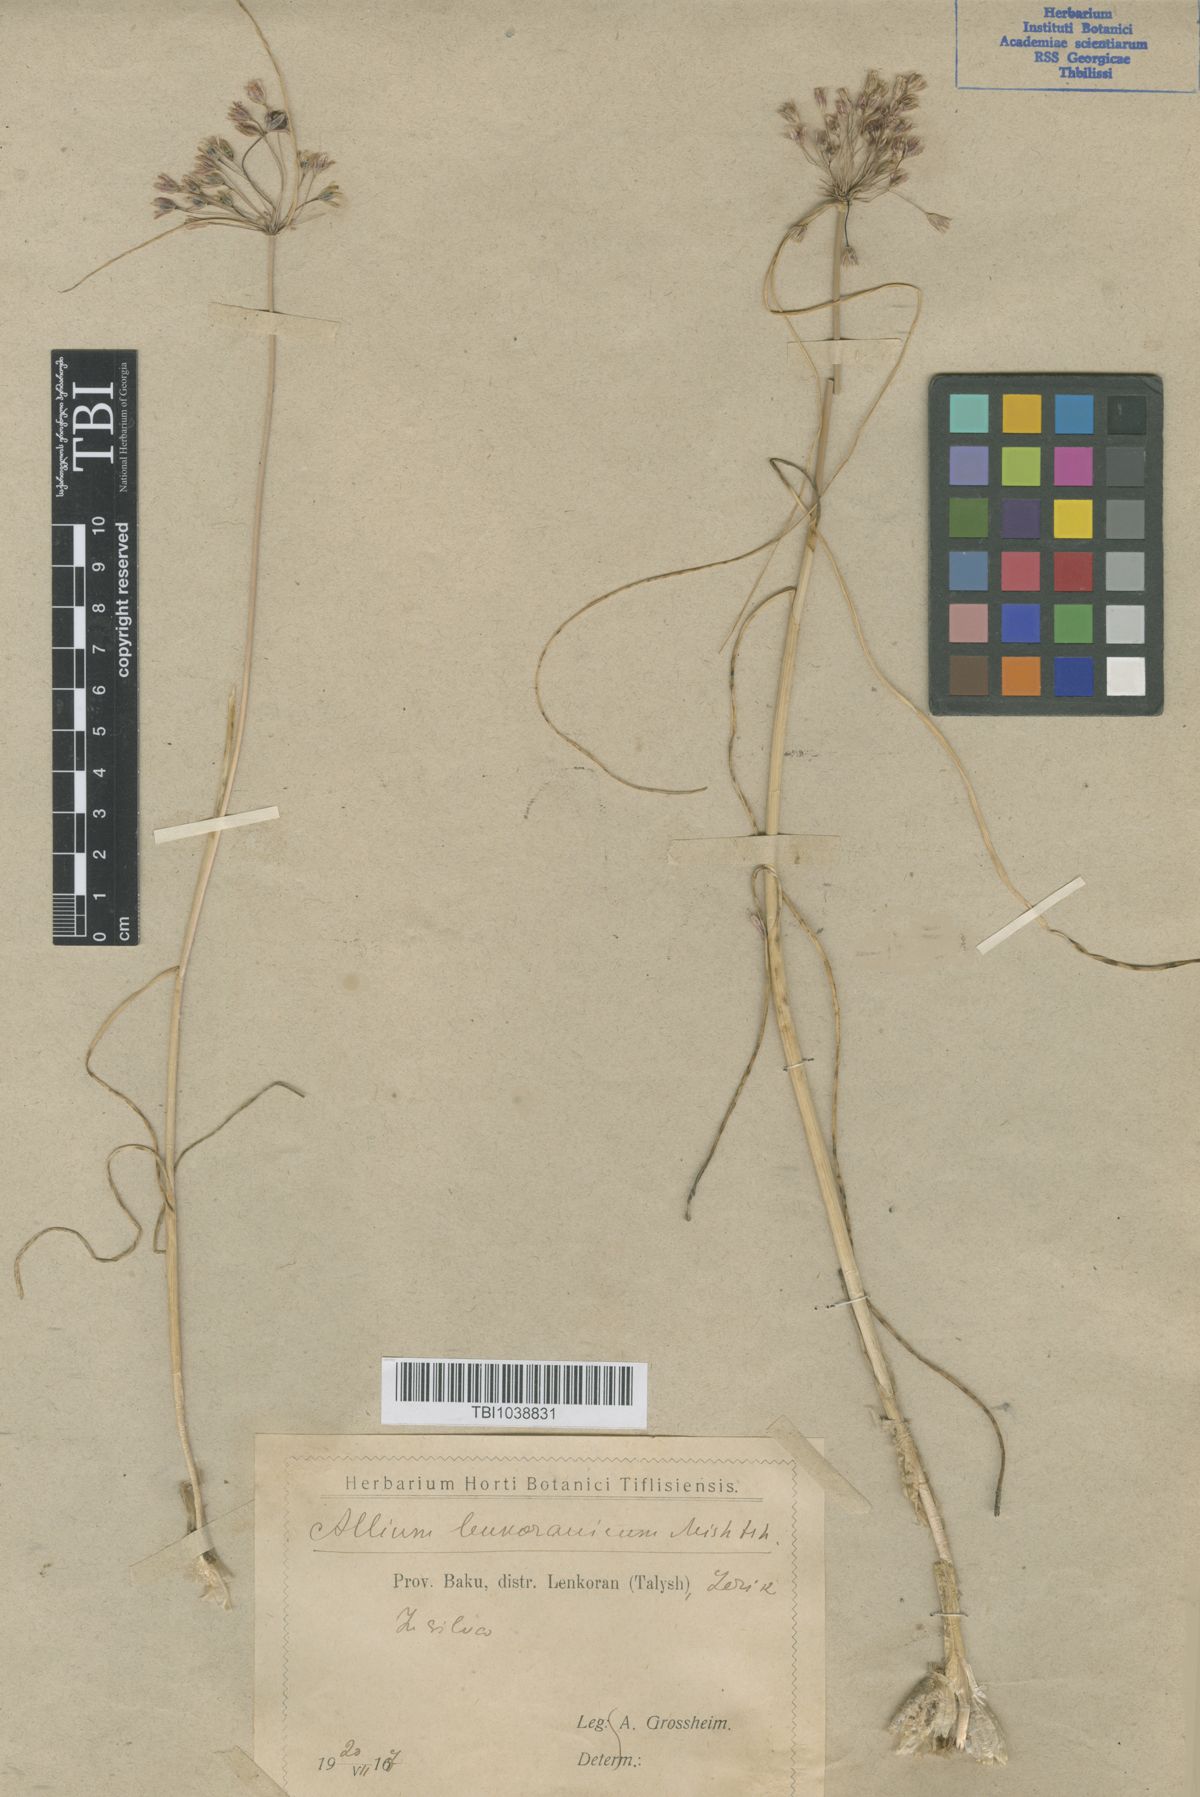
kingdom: Plantae
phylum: Tracheophyta
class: Liliopsida
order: Asparagales
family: Amaryllidaceae
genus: Allium
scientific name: Allium lenkoranicum
